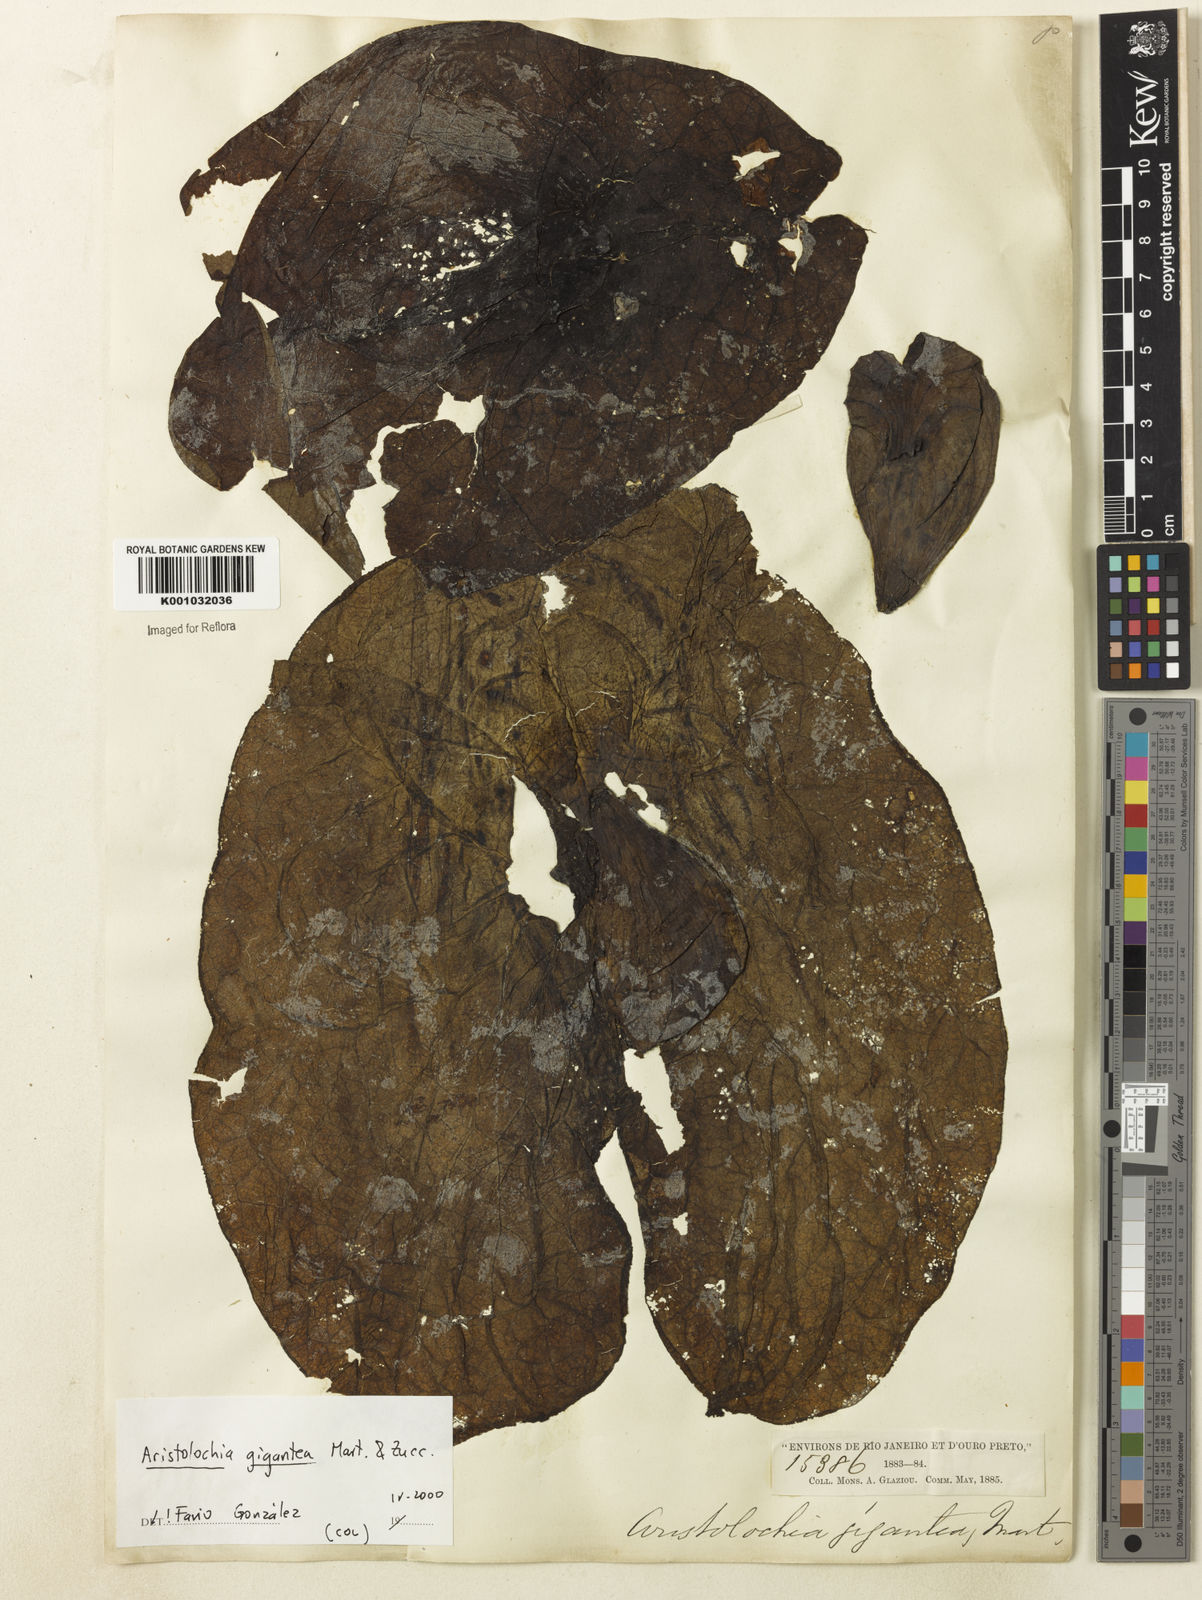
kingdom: Plantae
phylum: Tracheophyta
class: Magnoliopsida
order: Piperales
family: Aristolochiaceae
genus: Aristolochia
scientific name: Aristolochia gigantea
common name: Duckflower
